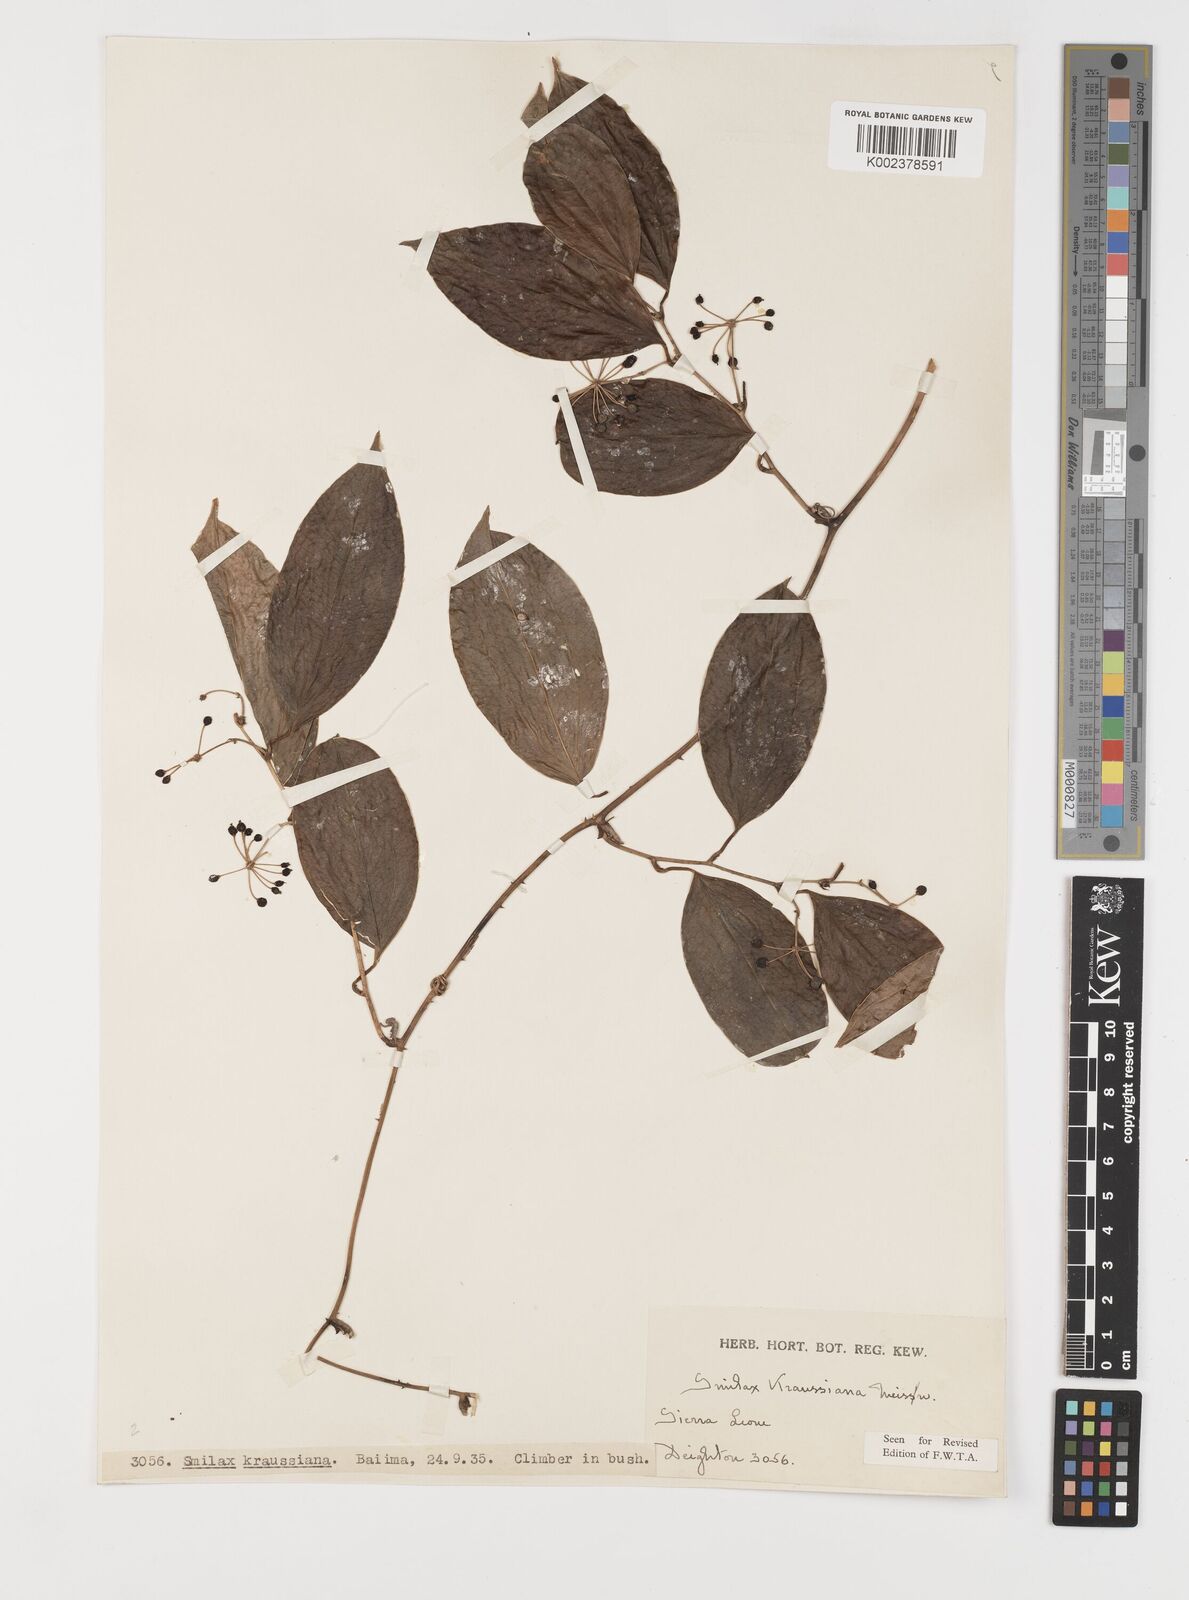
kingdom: Plantae
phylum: Tracheophyta
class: Liliopsida
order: Liliales
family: Smilacaceae
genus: Smilax
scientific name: Smilax anceps
